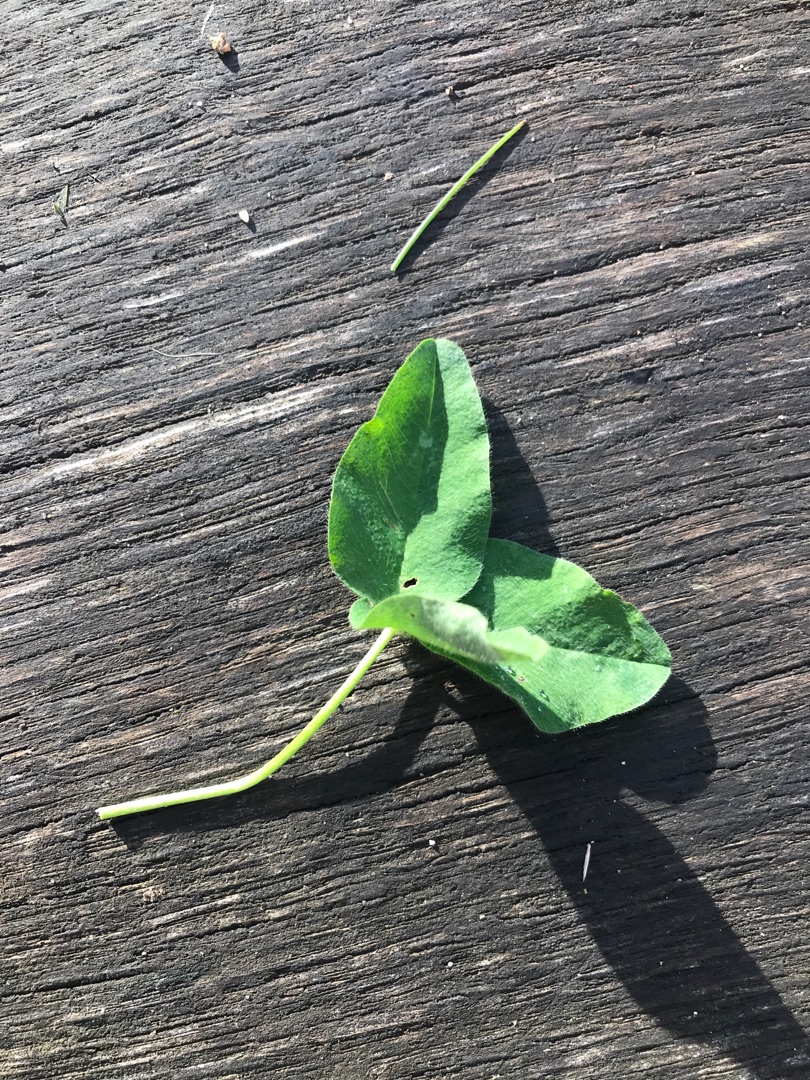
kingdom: Plantae
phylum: Tracheophyta
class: Magnoliopsida
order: Fabales
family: Fabaceae
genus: Trifolium
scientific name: Trifolium
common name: Kløverslægten
